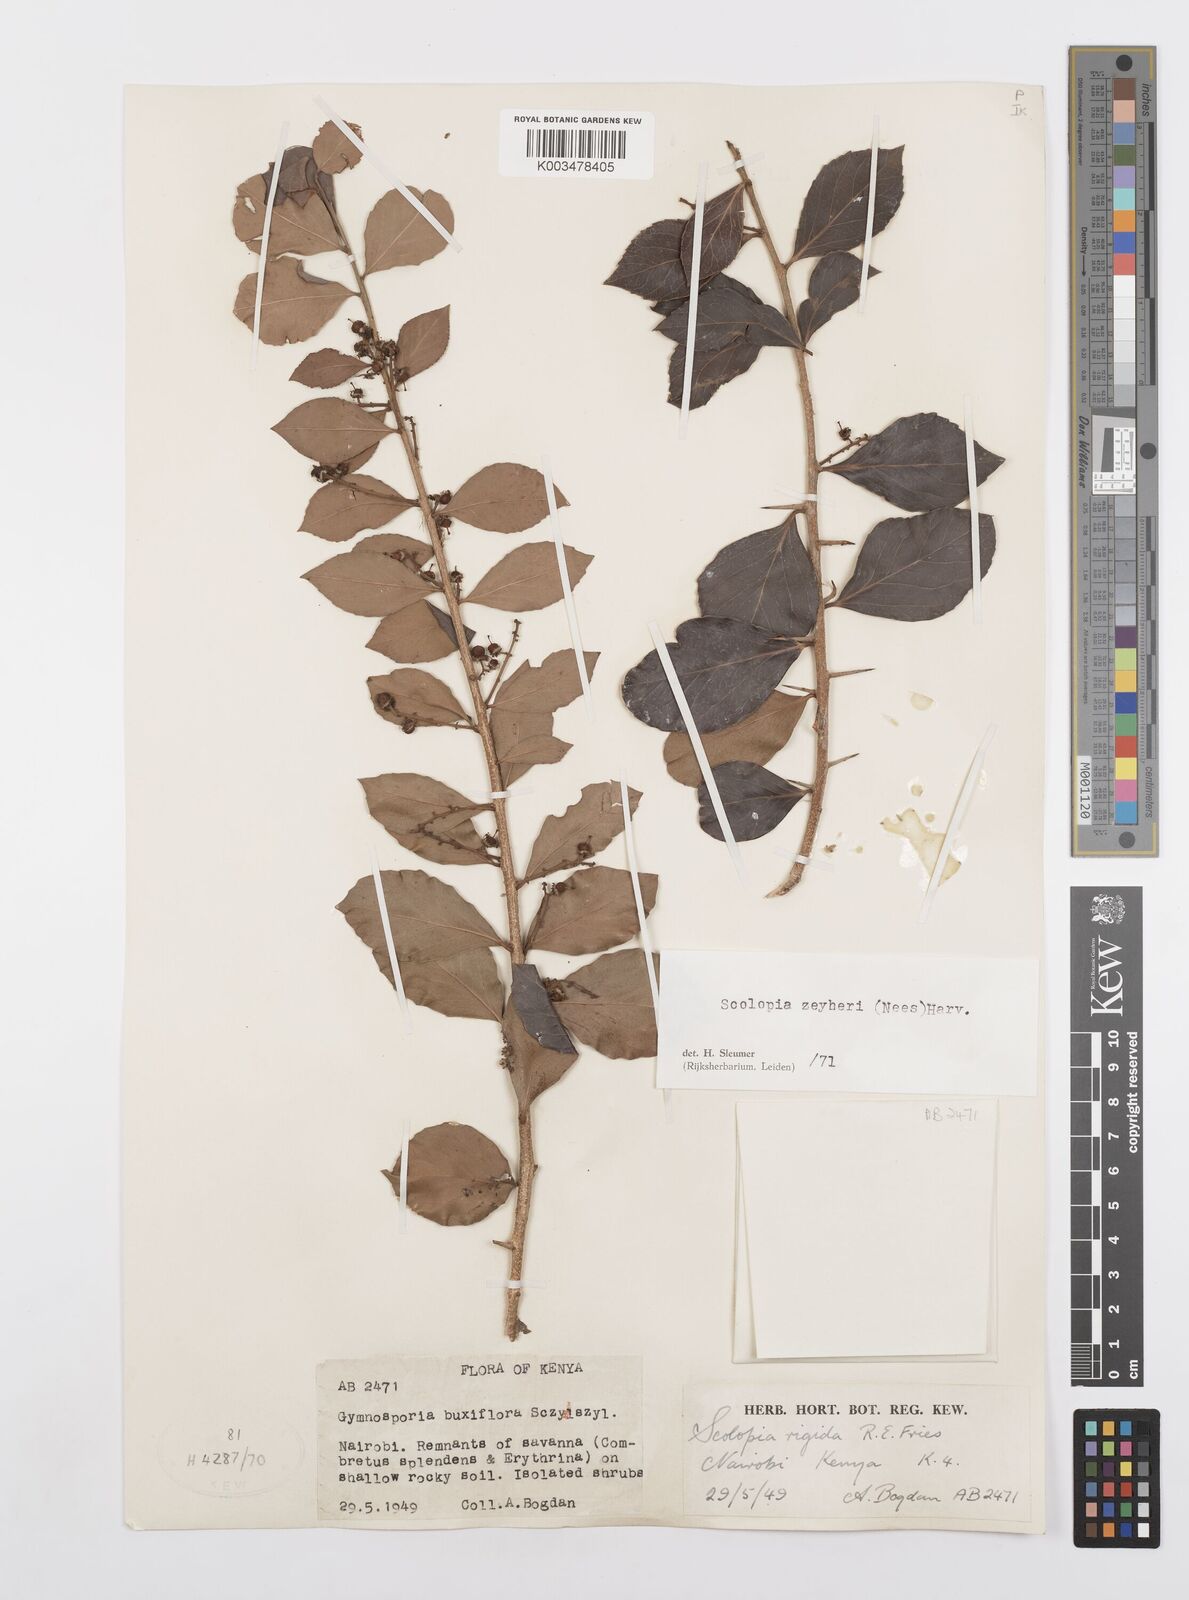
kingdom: Plantae
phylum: Tracheophyta
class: Magnoliopsida
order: Malpighiales
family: Salicaceae
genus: Scolopia
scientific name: Scolopia zeyheri
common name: Thorn pear
